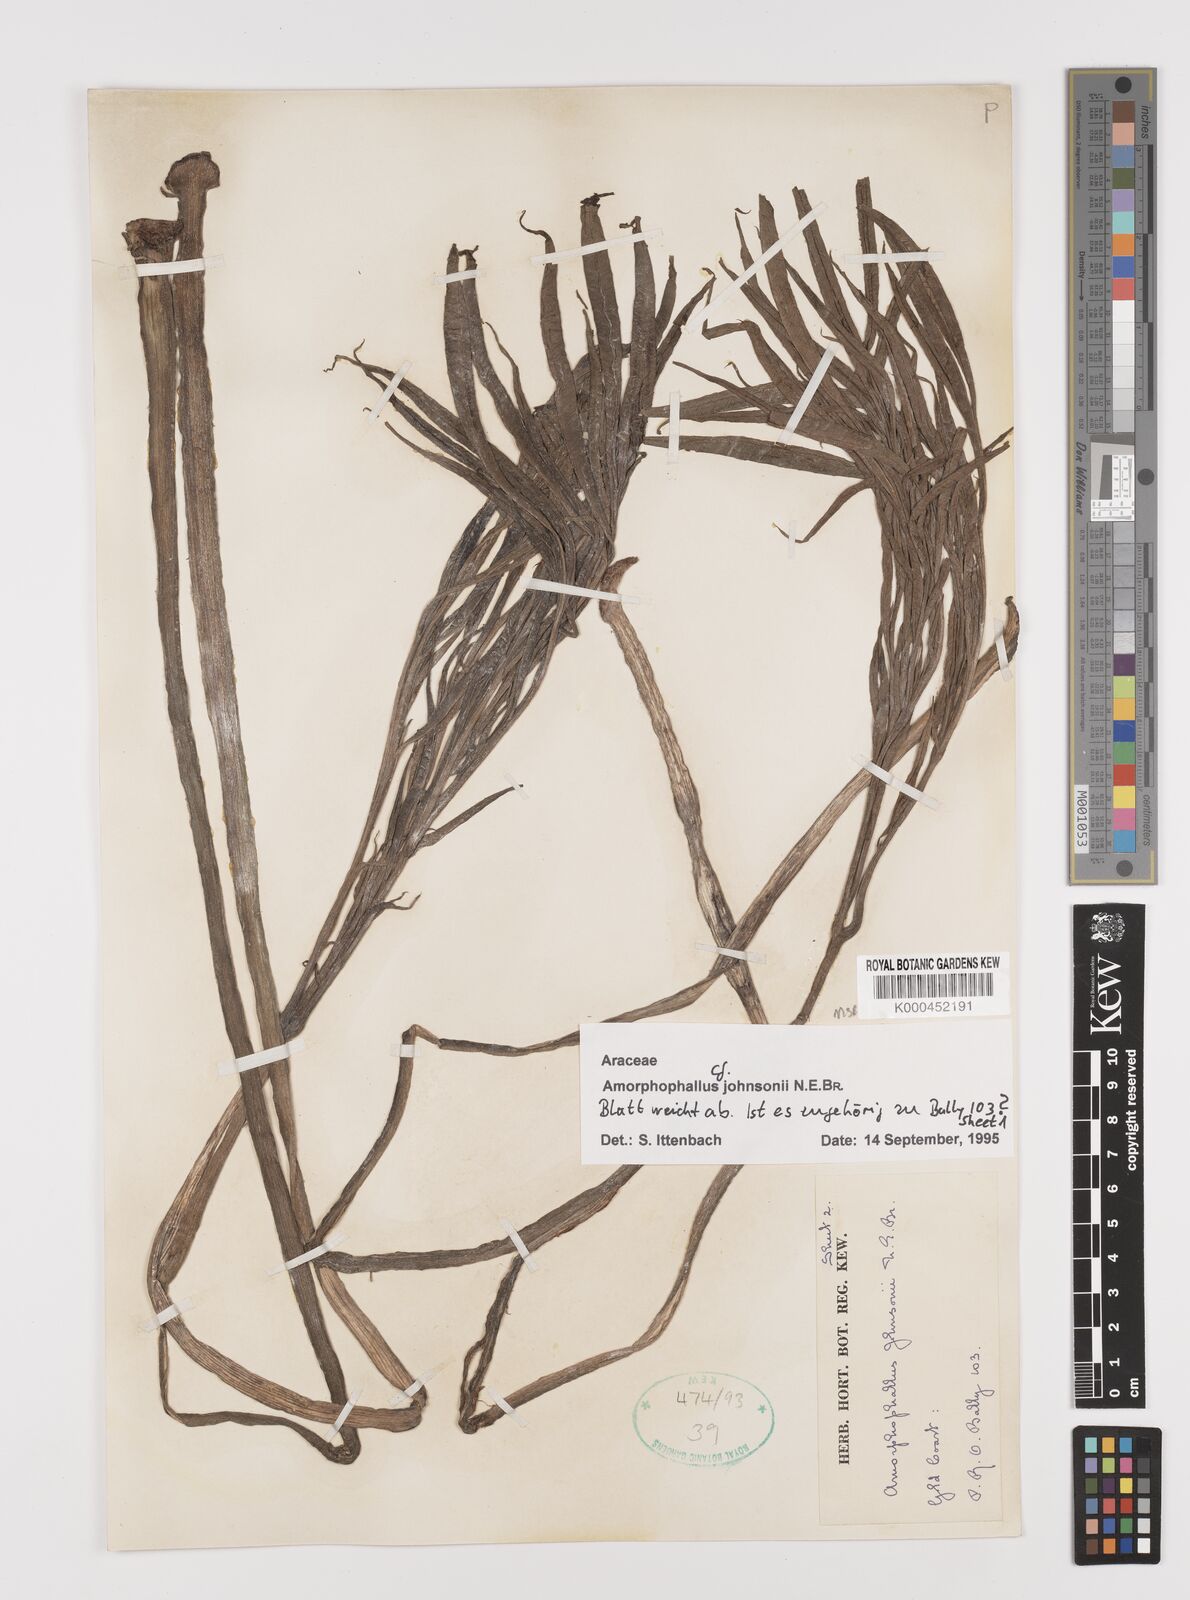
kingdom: Plantae
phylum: Tracheophyta
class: Liliopsida
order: Alismatales
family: Araceae
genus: Amorphophallus
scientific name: Amorphophallus johnsonii
